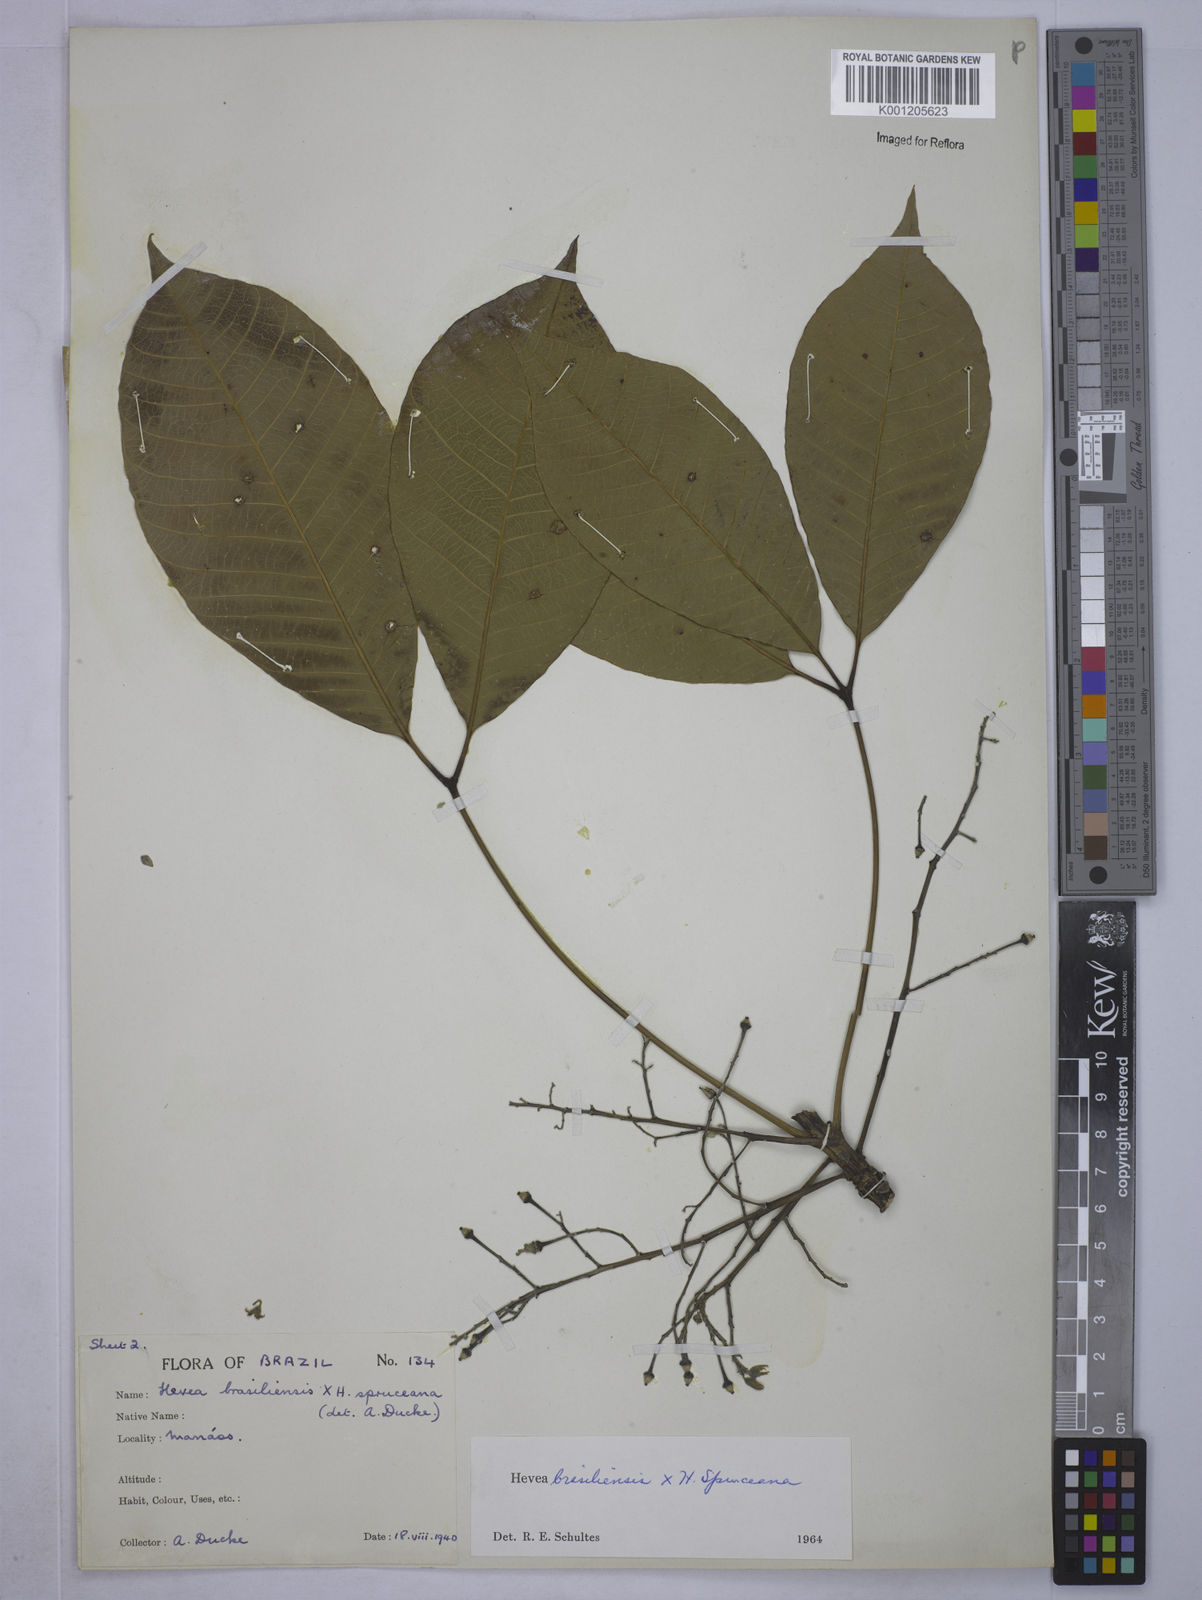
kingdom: Plantae
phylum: Tracheophyta
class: Magnoliopsida
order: Malpighiales
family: Euphorbiaceae
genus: Hevea
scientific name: Hevea
